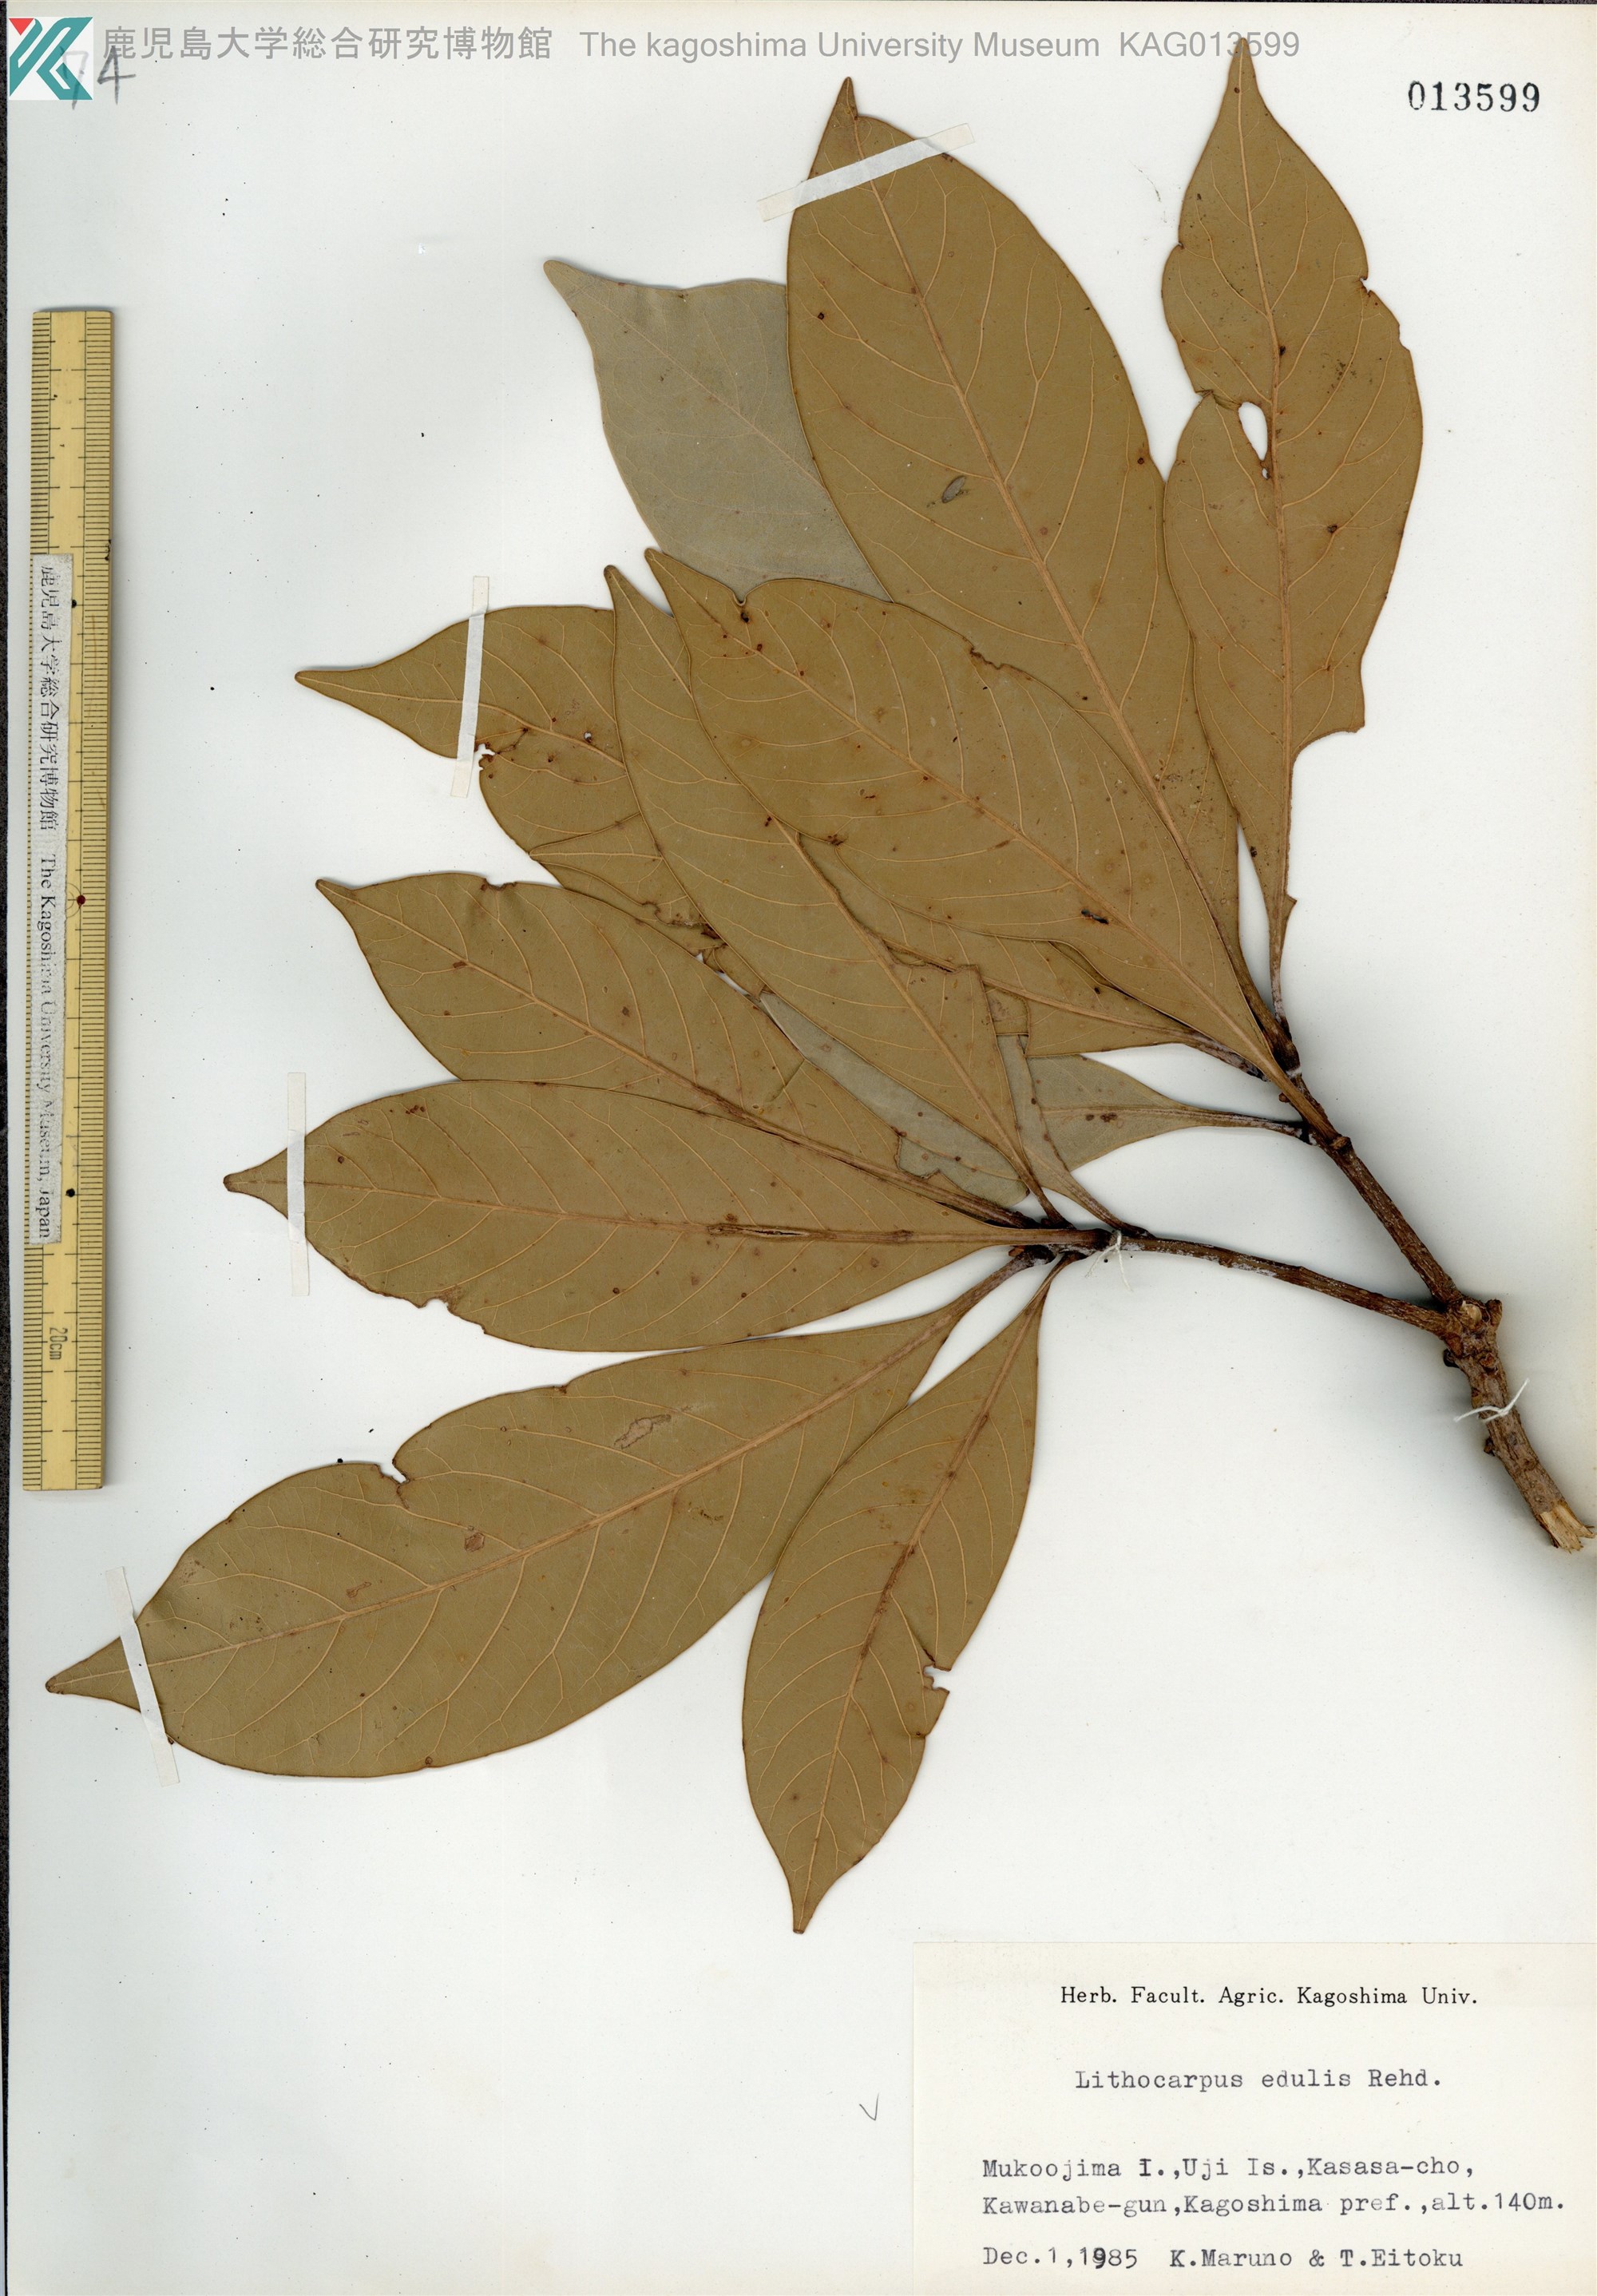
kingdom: Plantae
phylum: Tracheophyta
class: Magnoliopsida
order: Fagales
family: Fagaceae
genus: Lithocarpus
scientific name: Lithocarpus edulis
